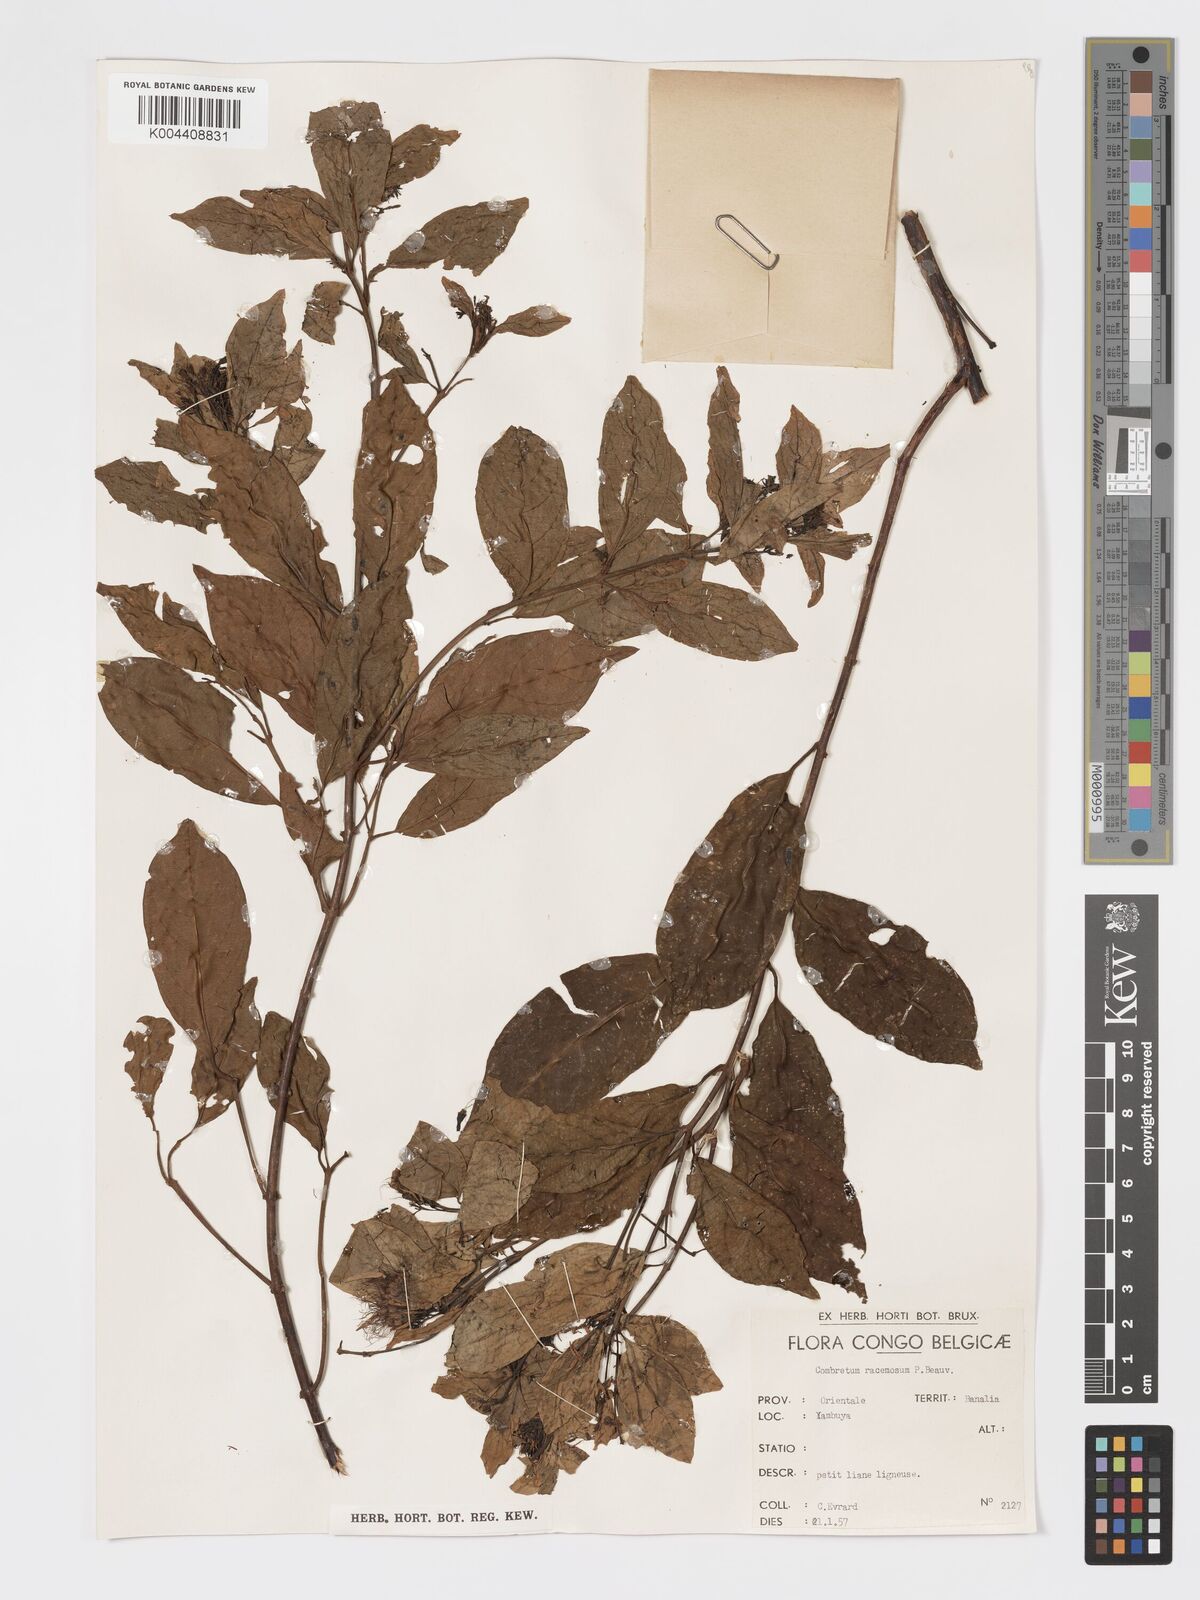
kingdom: Plantae
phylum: Tracheophyta
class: Magnoliopsida
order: Myrtales
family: Combretaceae
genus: Combretum
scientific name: Combretum racemosum
